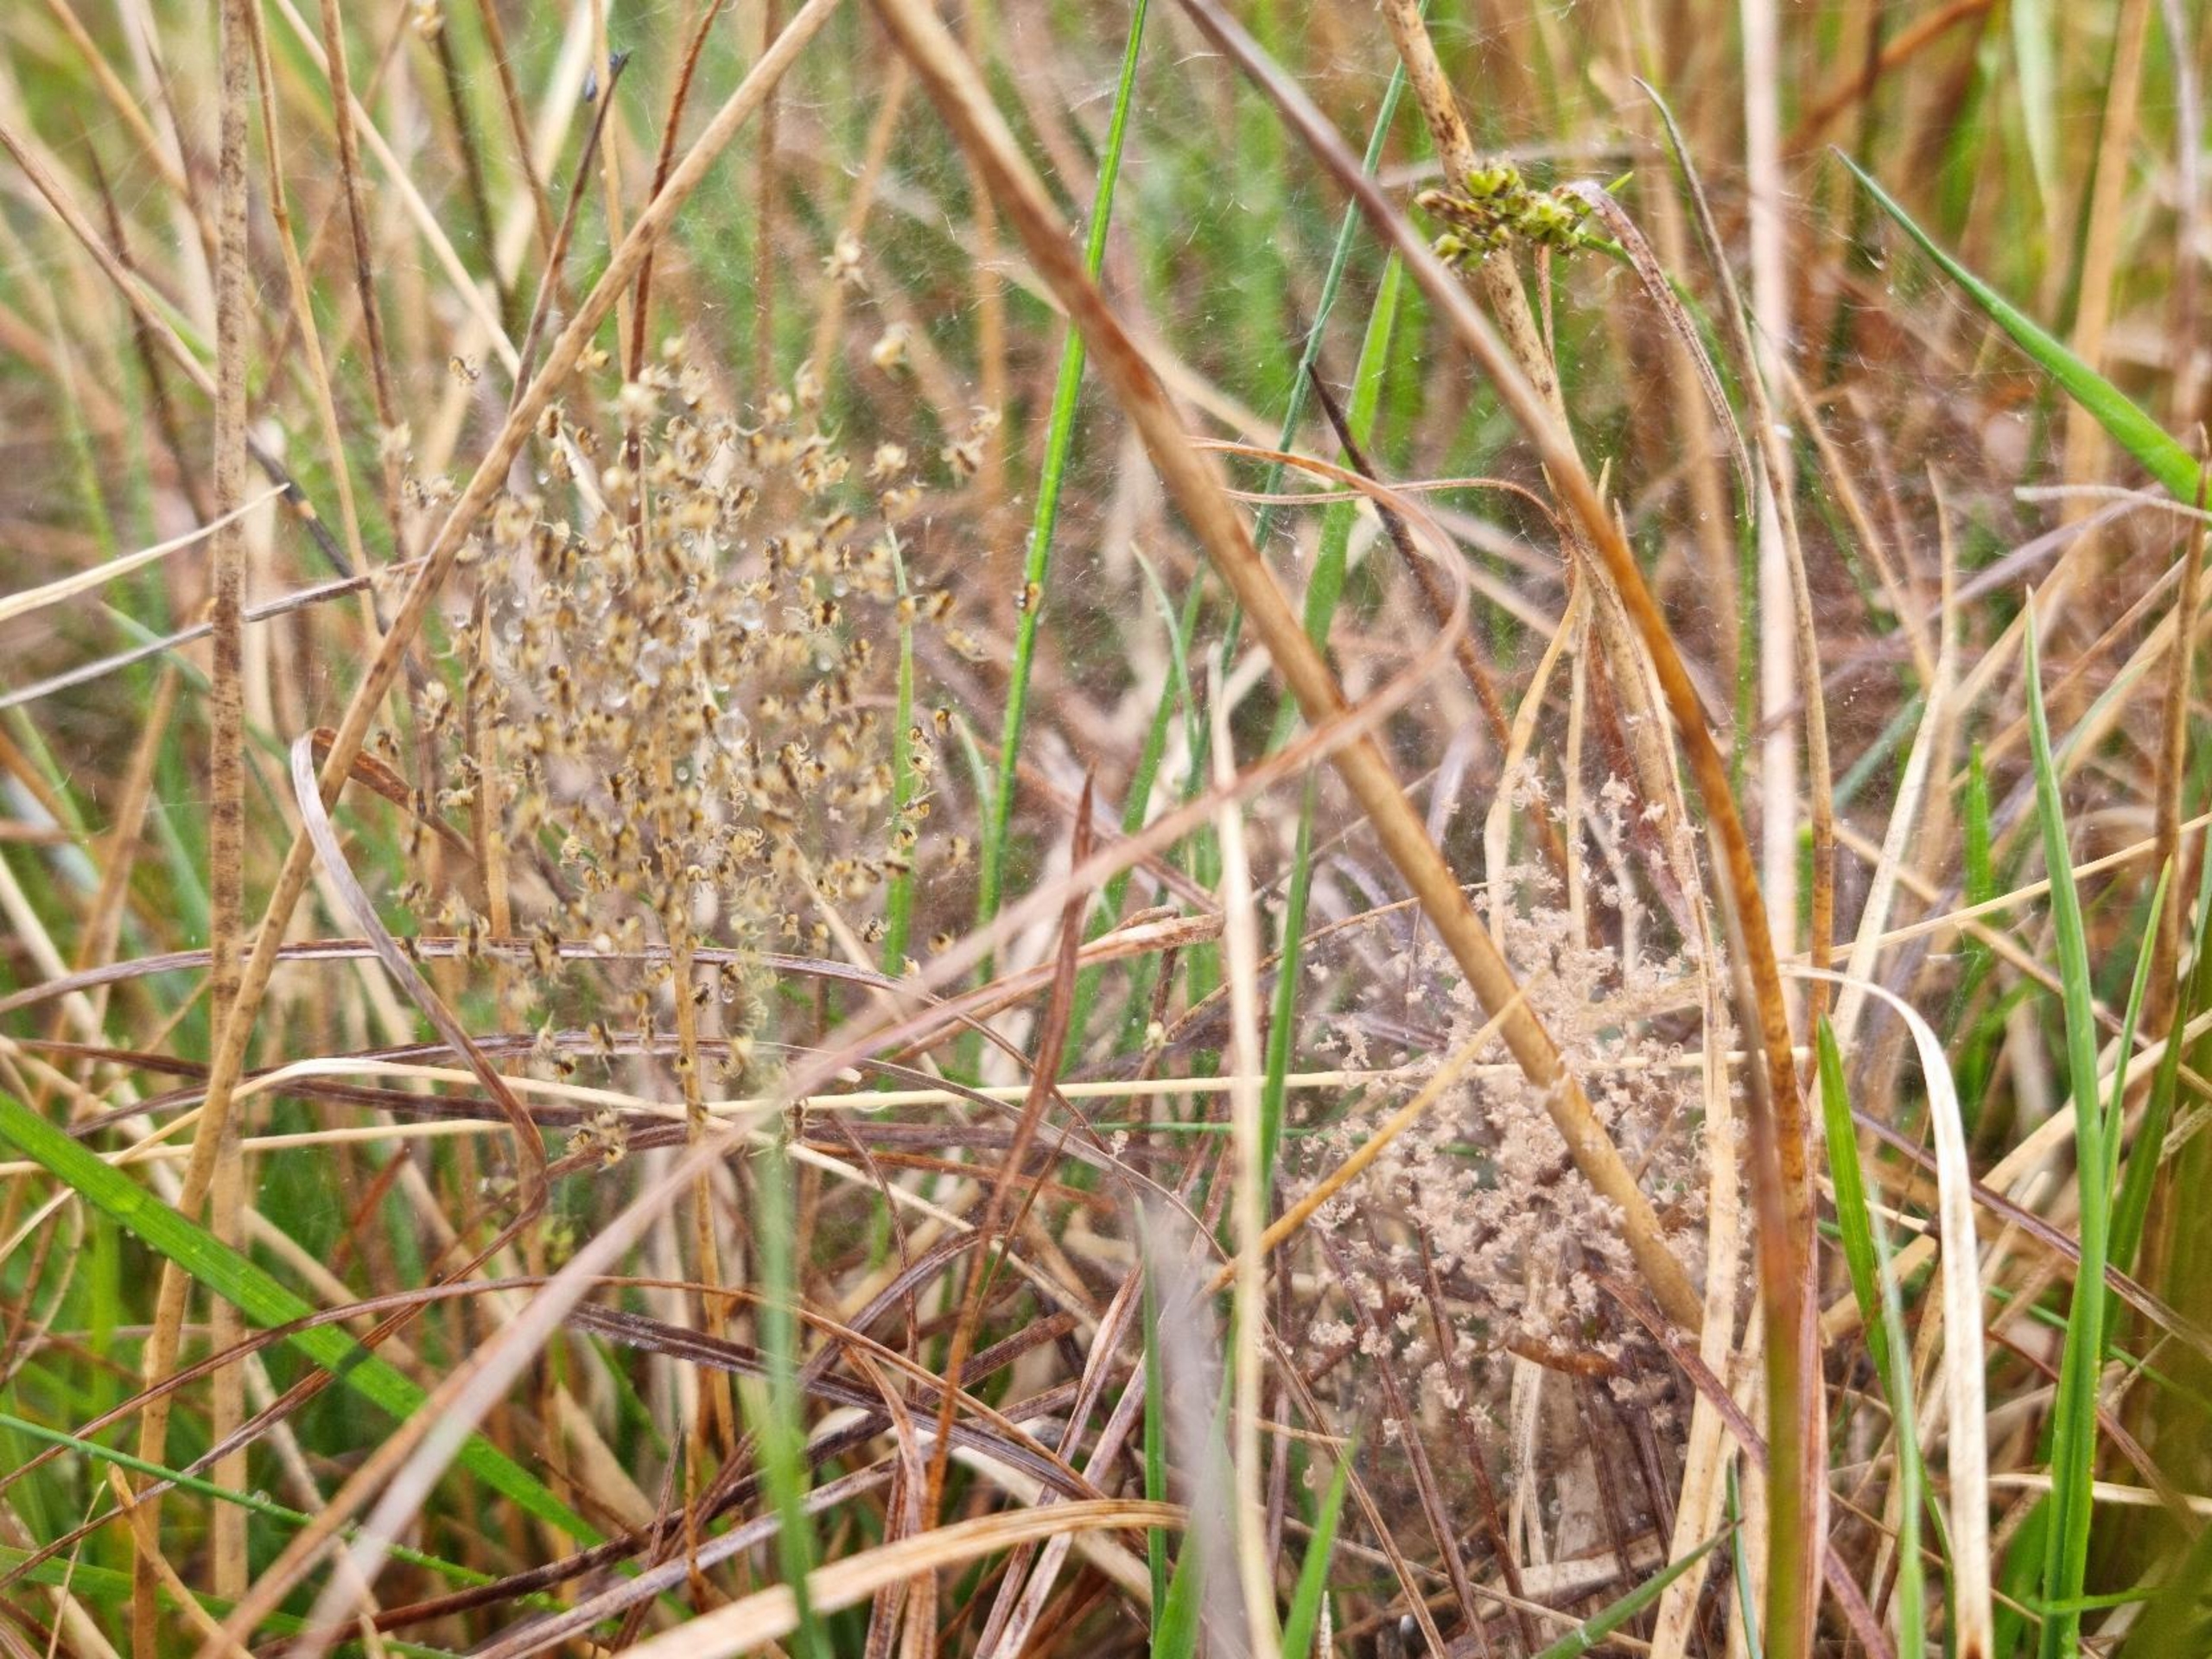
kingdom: Animalia
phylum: Arthropoda
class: Arachnida
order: Araneae
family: Araneidae
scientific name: Araneidae
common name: Hjulspindere
